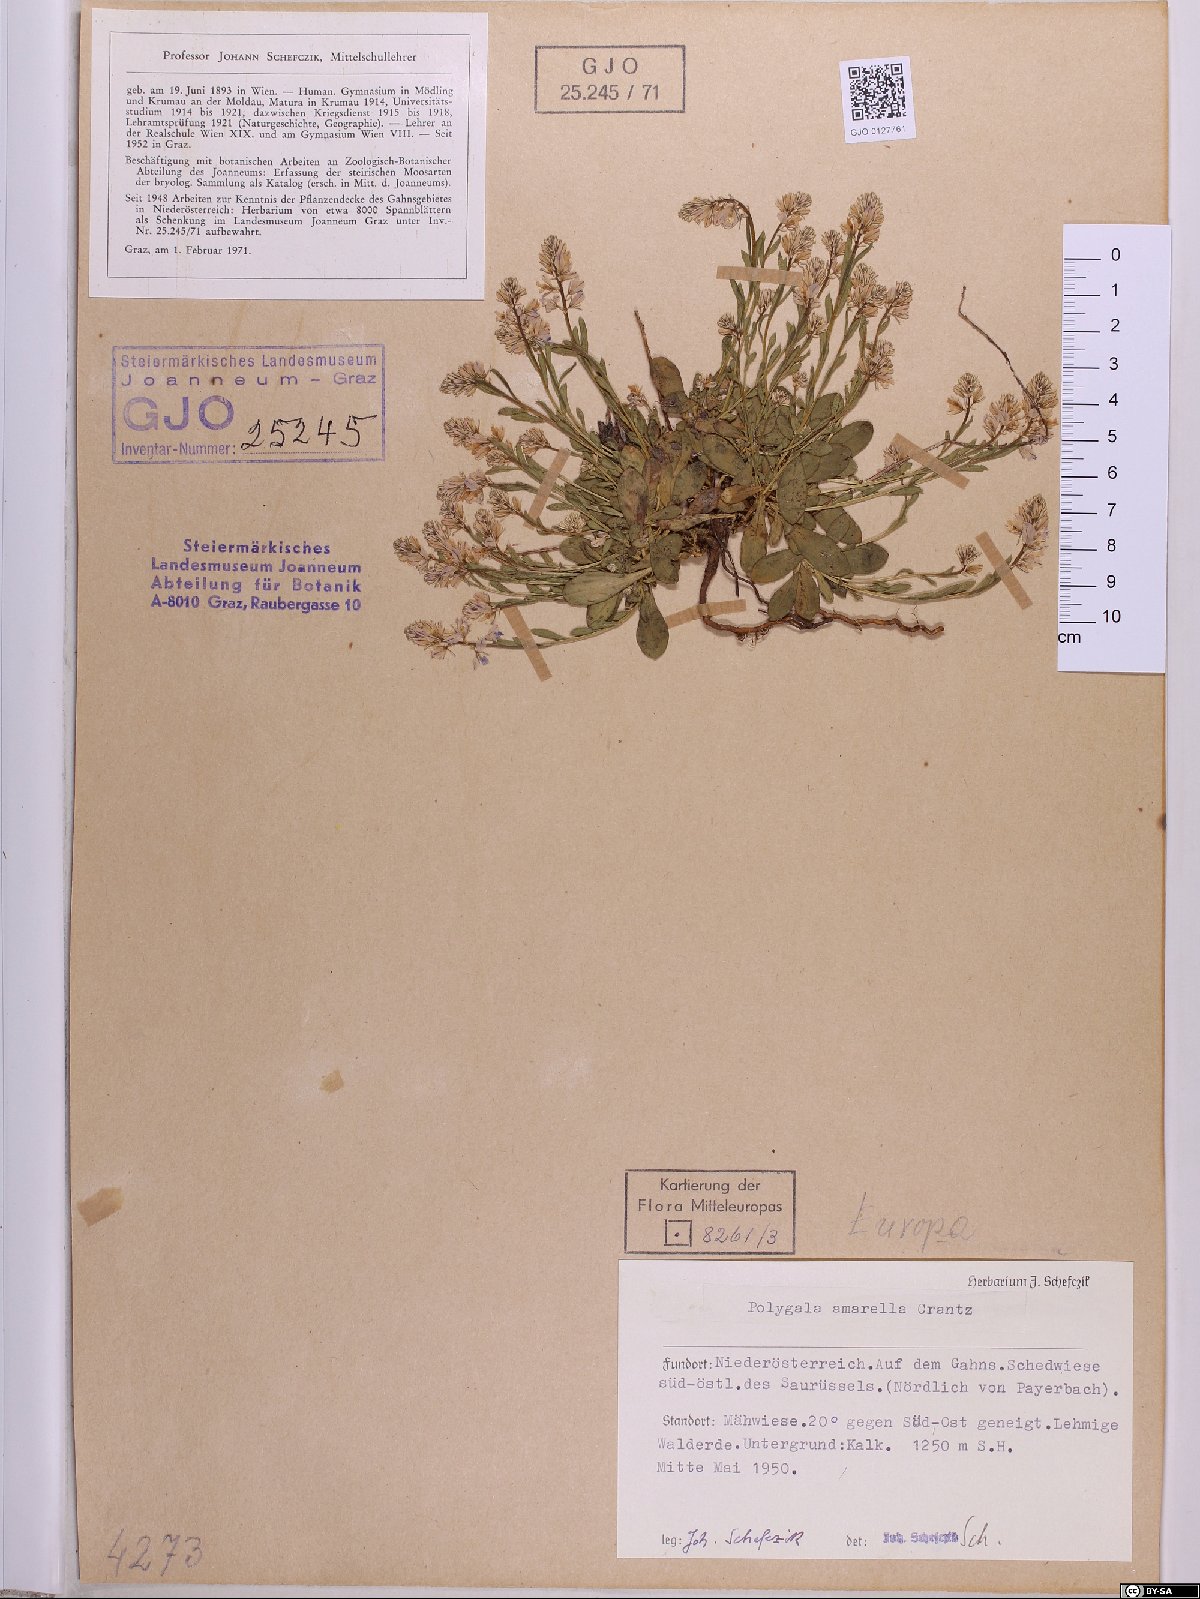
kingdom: Plantae
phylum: Tracheophyta
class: Magnoliopsida
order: Fabales
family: Polygalaceae
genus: Polygala
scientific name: Polygala amarella
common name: Dwarf milkwort
